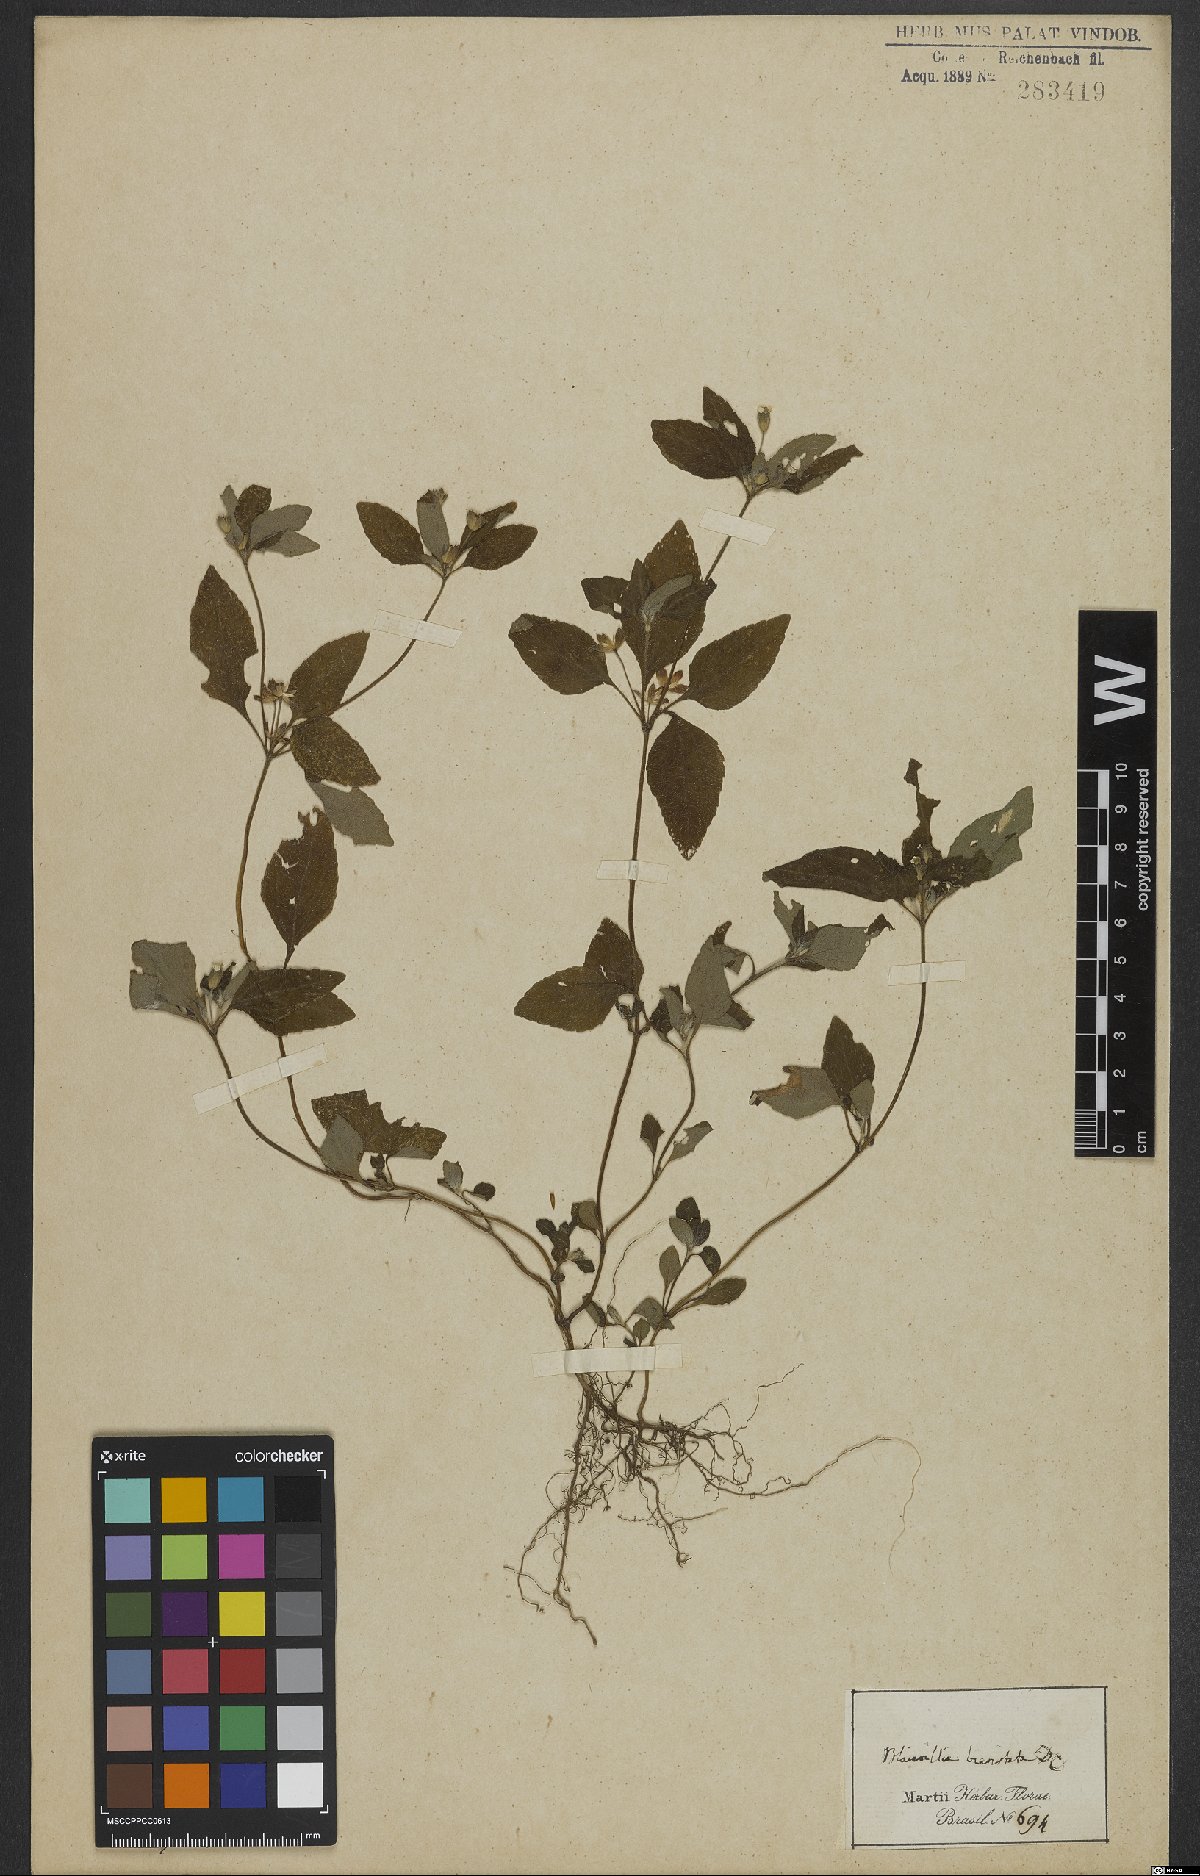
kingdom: Plantae
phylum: Tracheophyta
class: Magnoliopsida
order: Asterales
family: Asteraceae
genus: Calyptocarpus
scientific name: Calyptocarpus brasiliensis
